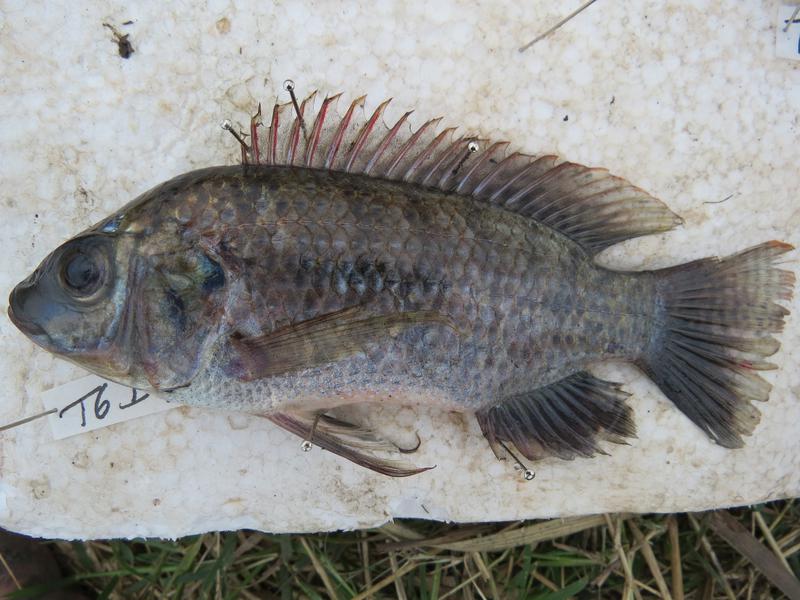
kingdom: Animalia
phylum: Chordata
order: Perciformes
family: Cichlidae
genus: Oreochromis
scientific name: Oreochromis urolepis
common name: Wami tilapia
